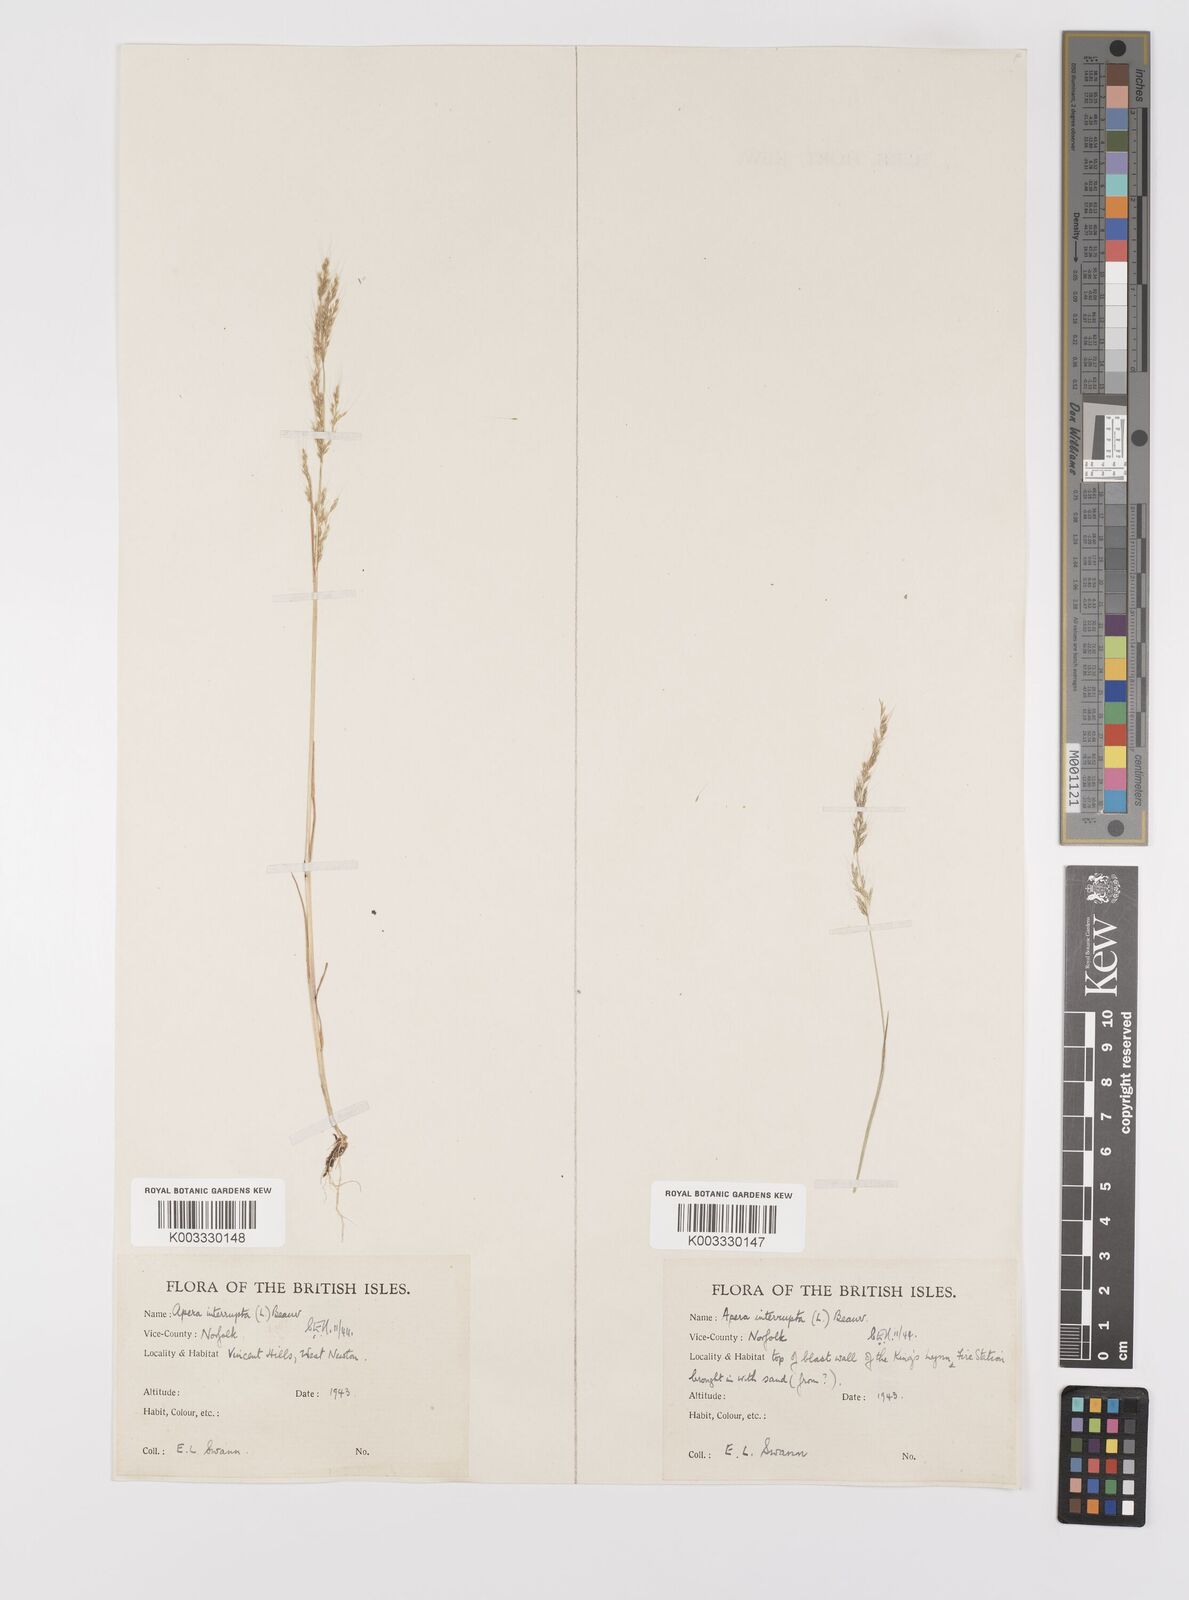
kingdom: Plantae
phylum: Tracheophyta
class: Liliopsida
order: Poales
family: Poaceae
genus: Apera
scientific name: Apera interrupta
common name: Dense silky-bent
